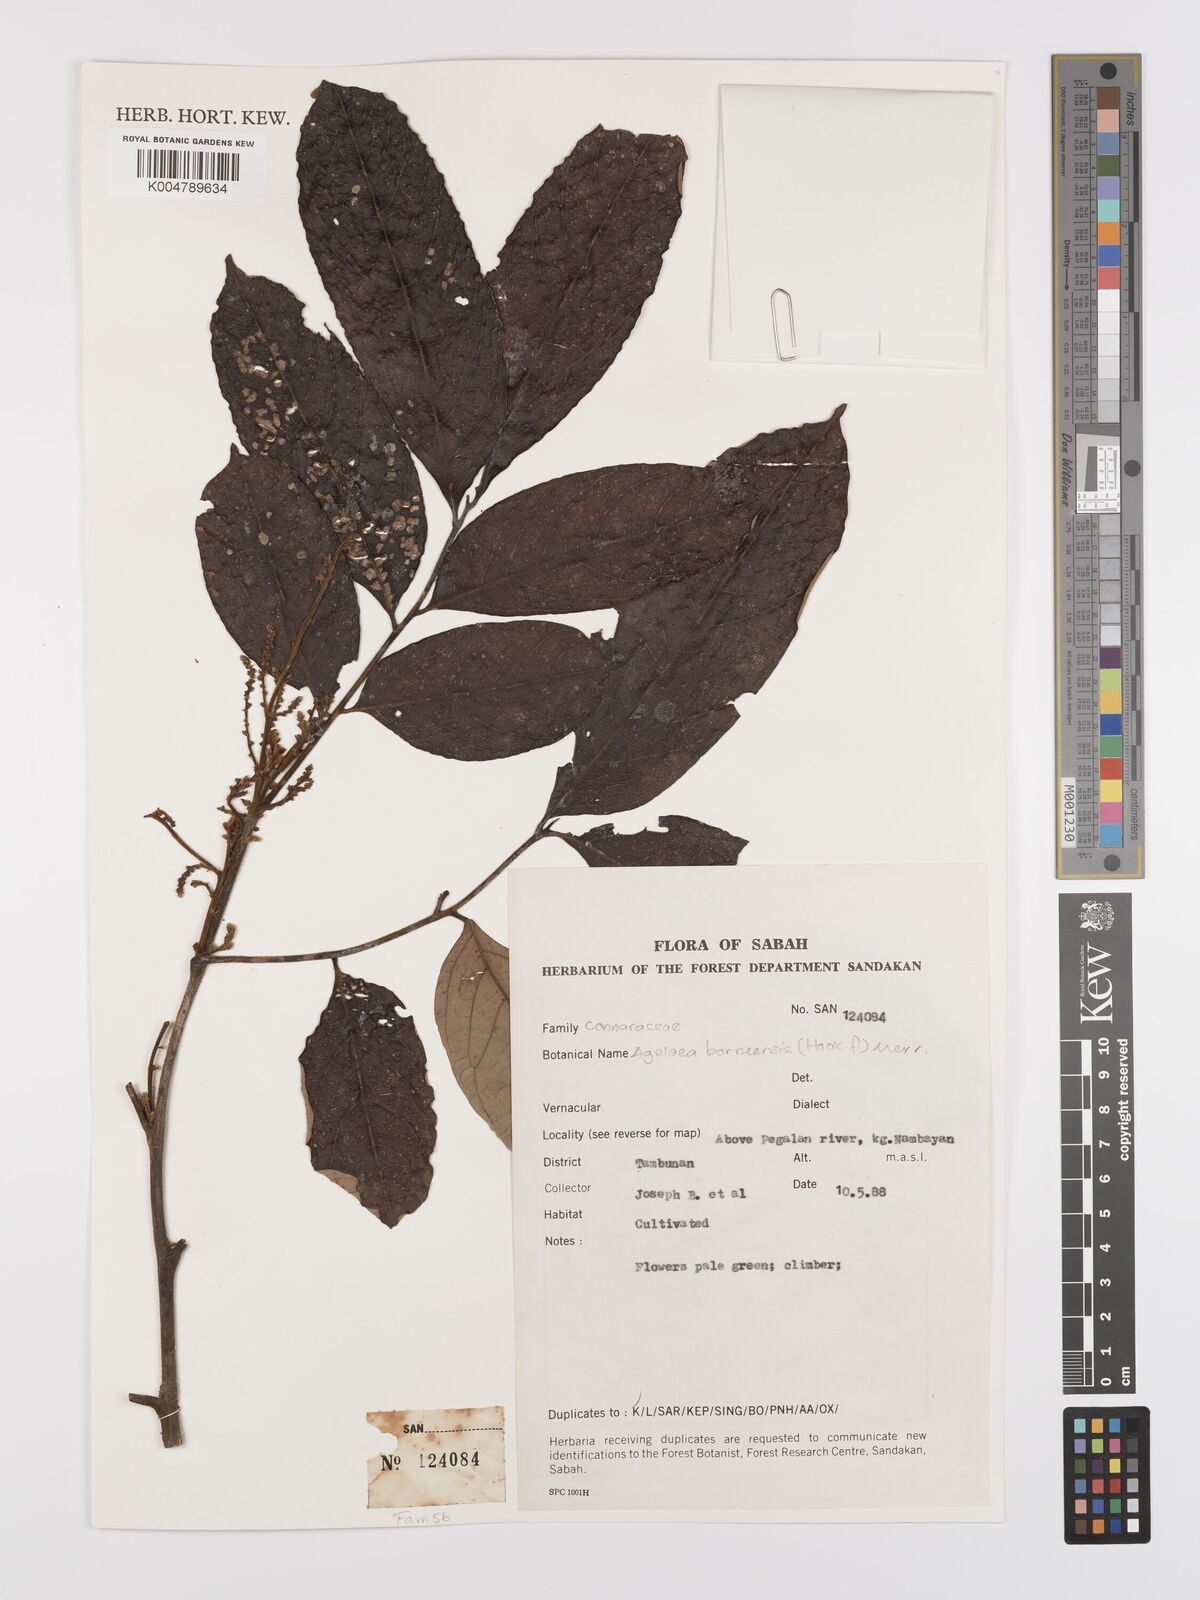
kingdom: Plantae
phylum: Tracheophyta
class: Magnoliopsida
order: Oxalidales
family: Connaraceae
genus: Agelaea
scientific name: Agelaea borneensis
